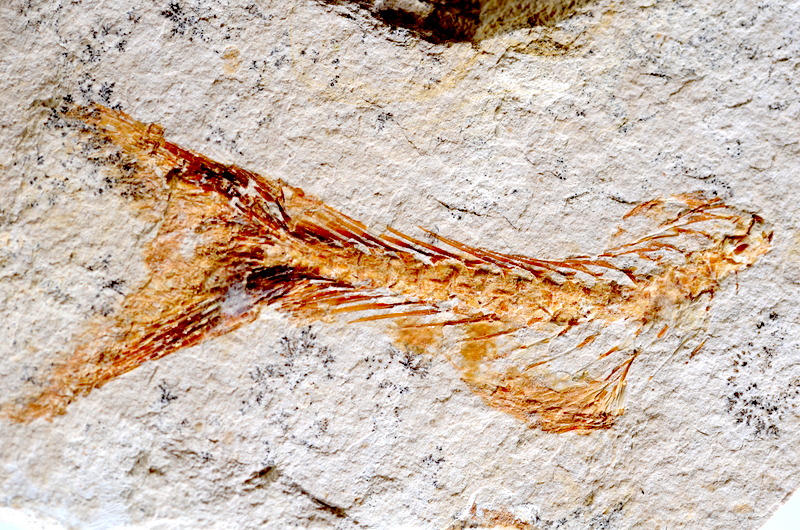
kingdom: Animalia
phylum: Chordata
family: Ascalaboidae
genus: Tharsis
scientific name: Tharsis dubius
